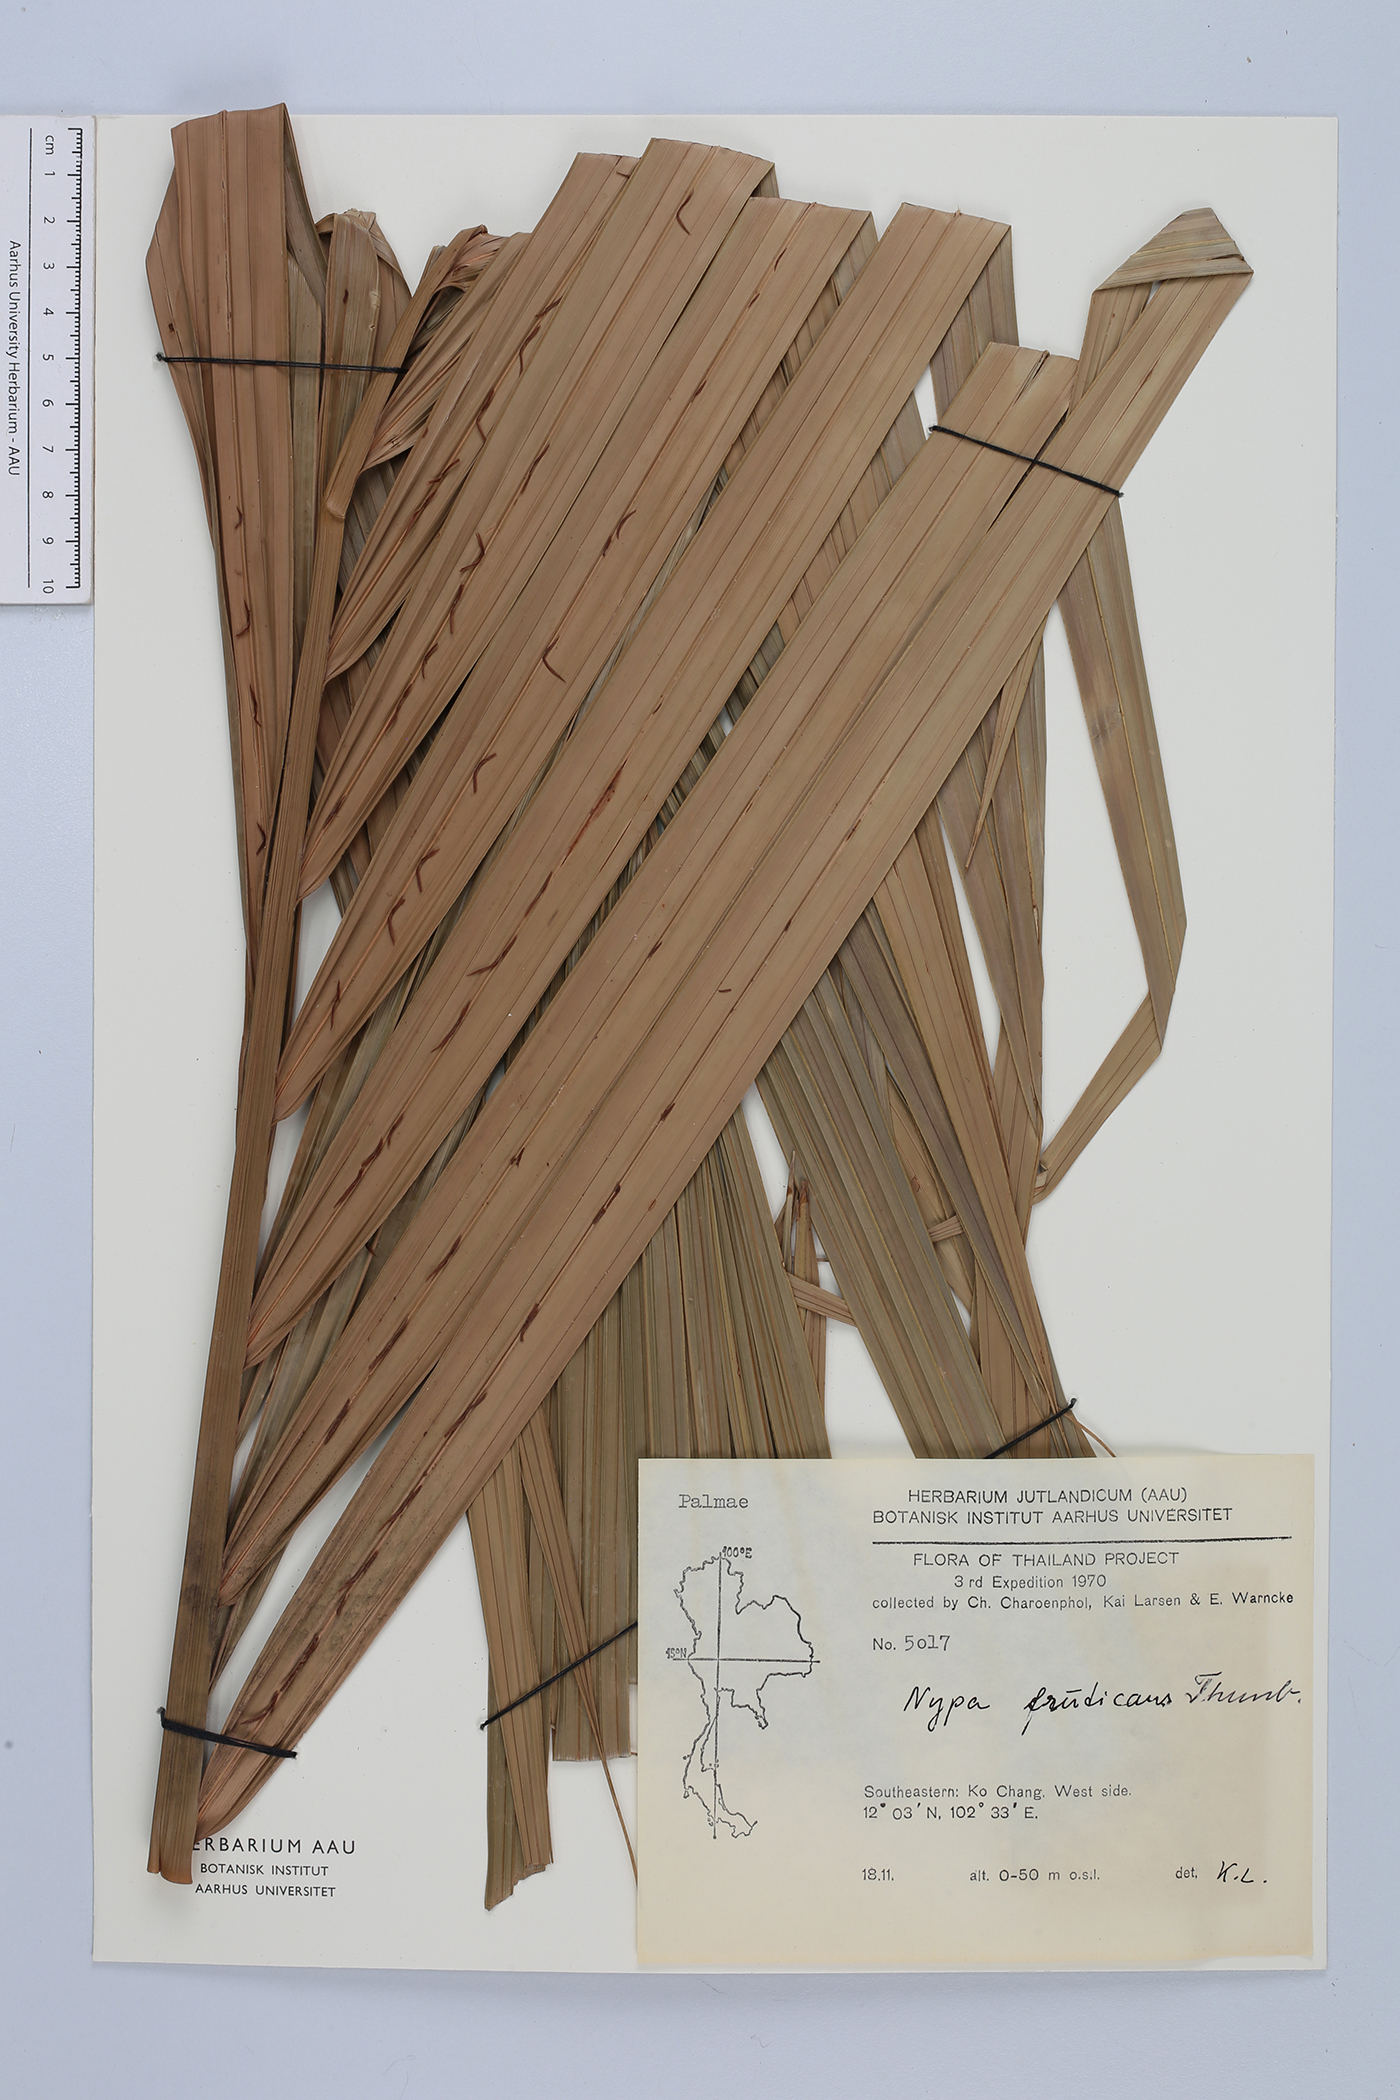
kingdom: Plantae
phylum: Tracheophyta
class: Liliopsida
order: Arecales
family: Arecaceae
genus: Nypa
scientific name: Nypa fruticans
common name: Mangrove palm
